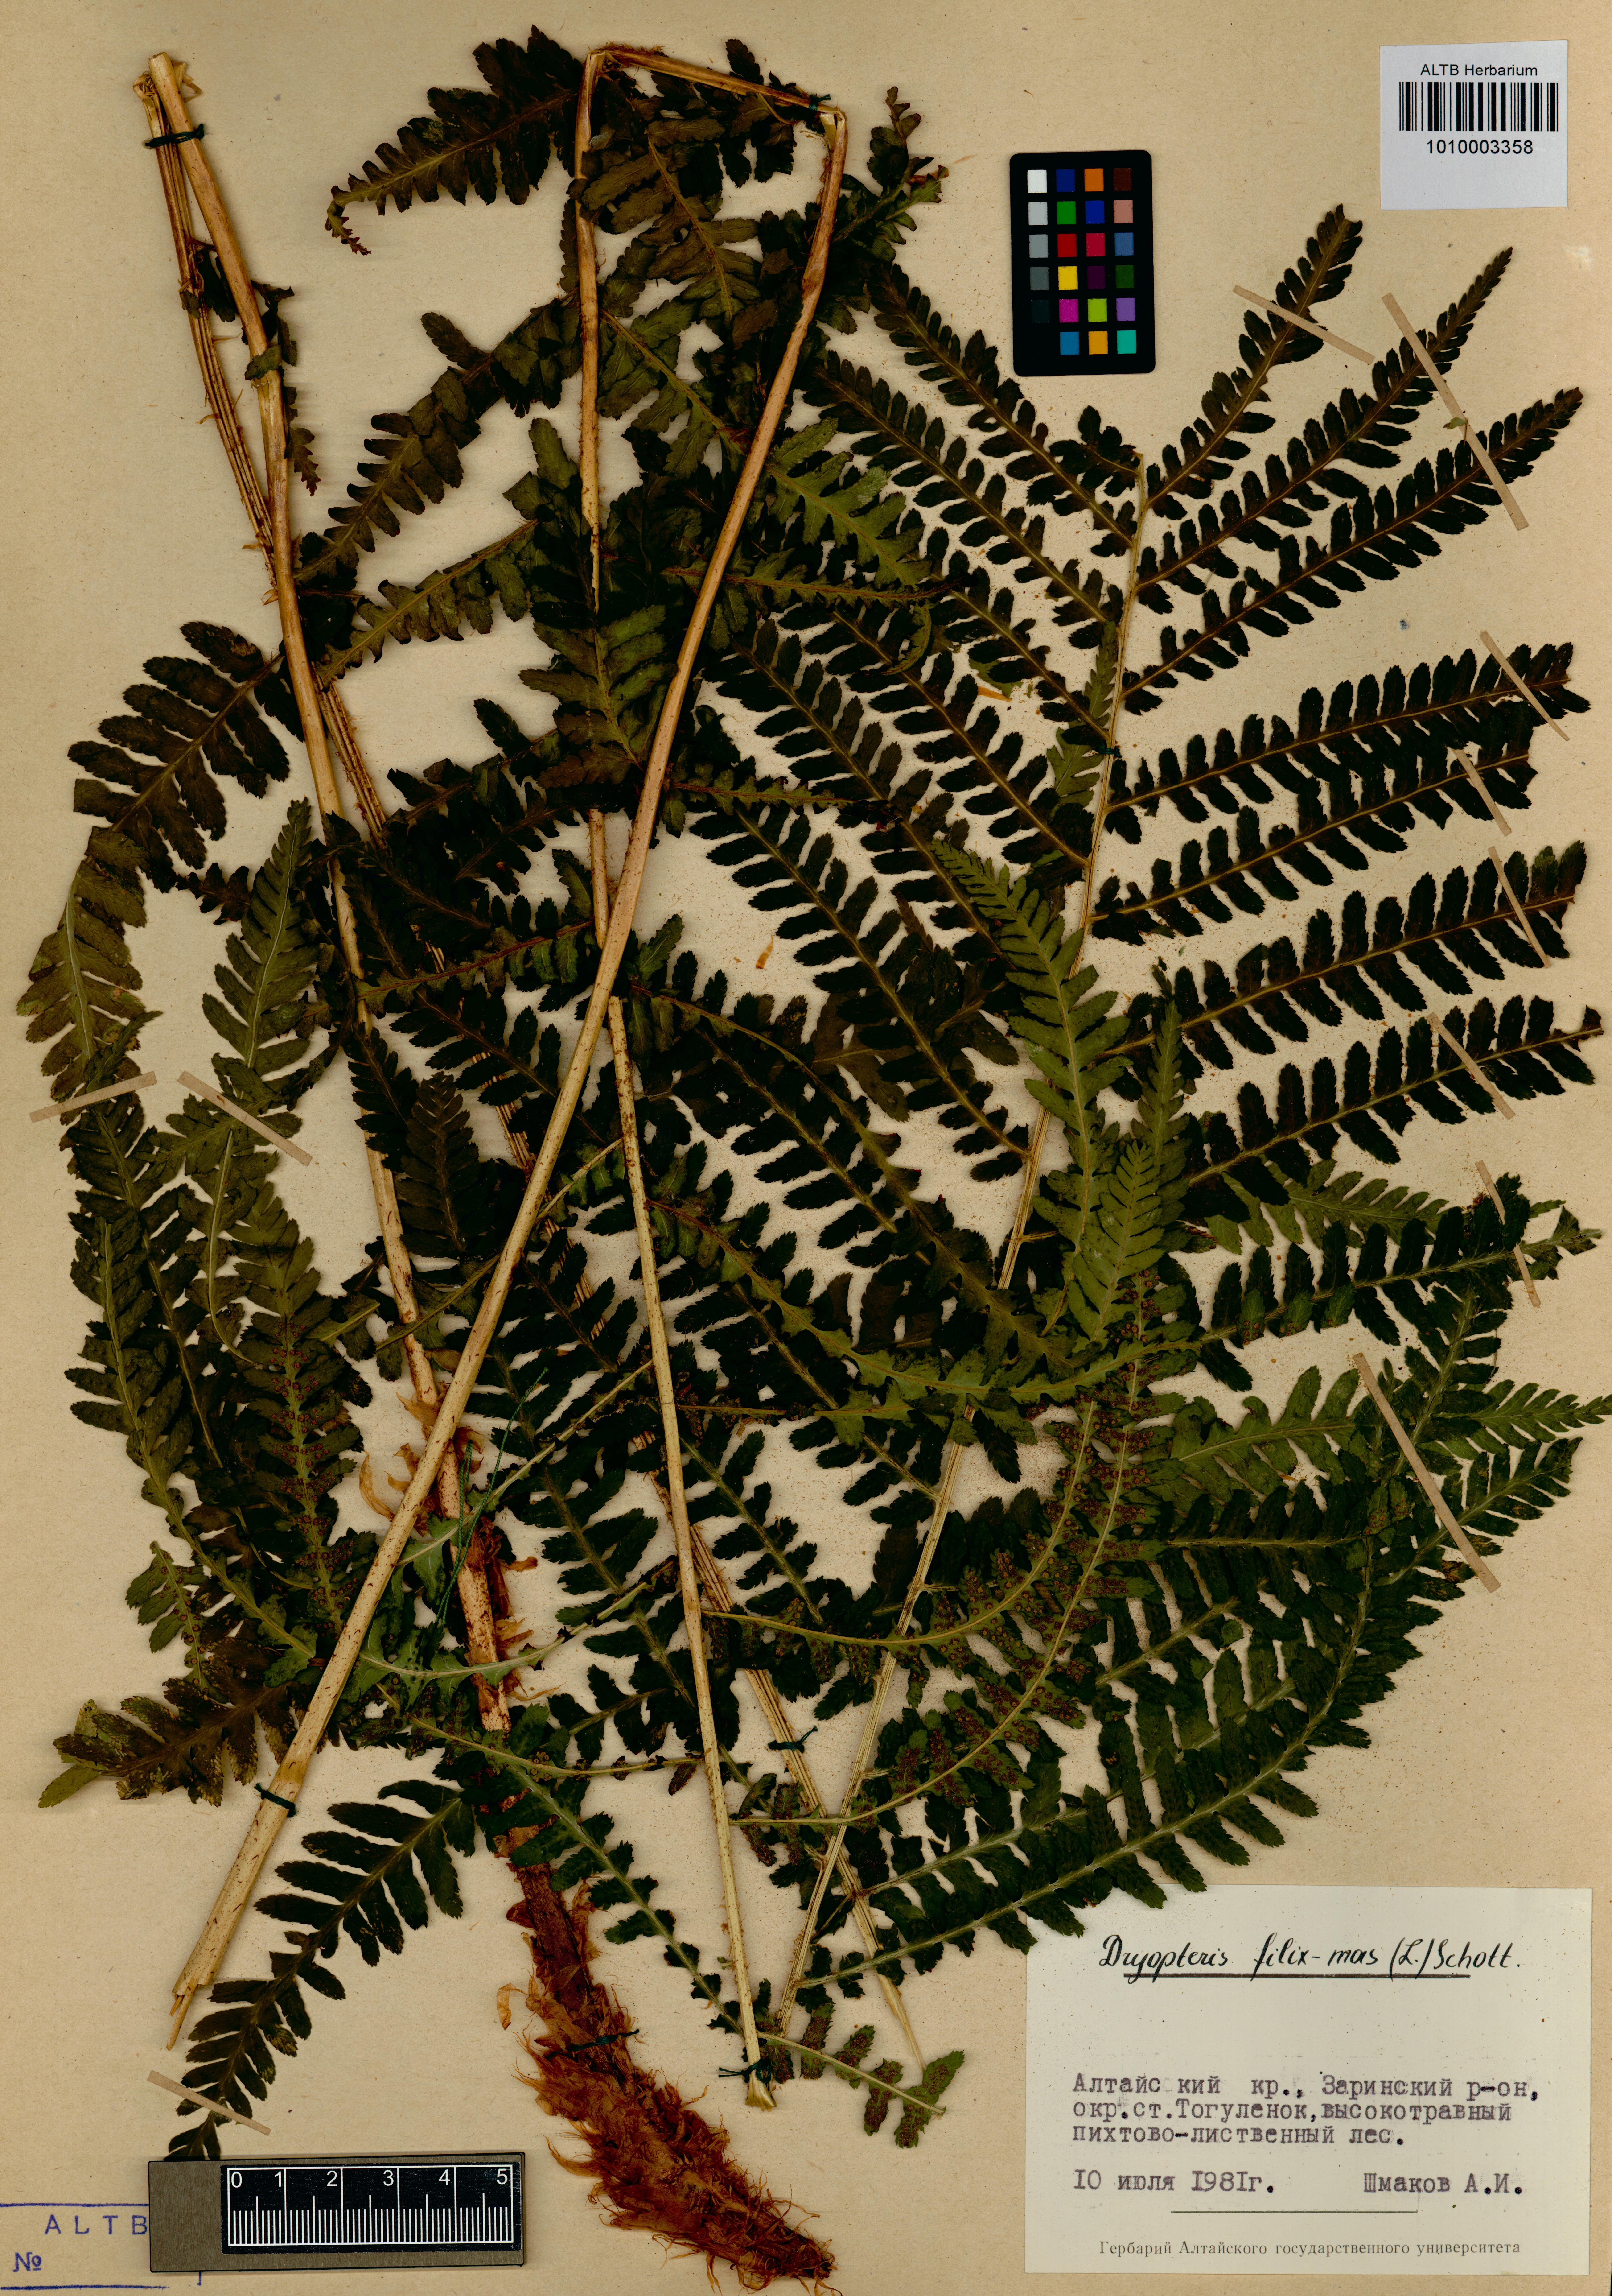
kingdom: Plantae
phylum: Tracheophyta
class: Polypodiopsida
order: Polypodiales
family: Dryopteridaceae
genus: Dryopteris
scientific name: Dryopteris filix-mas
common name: Male fern
